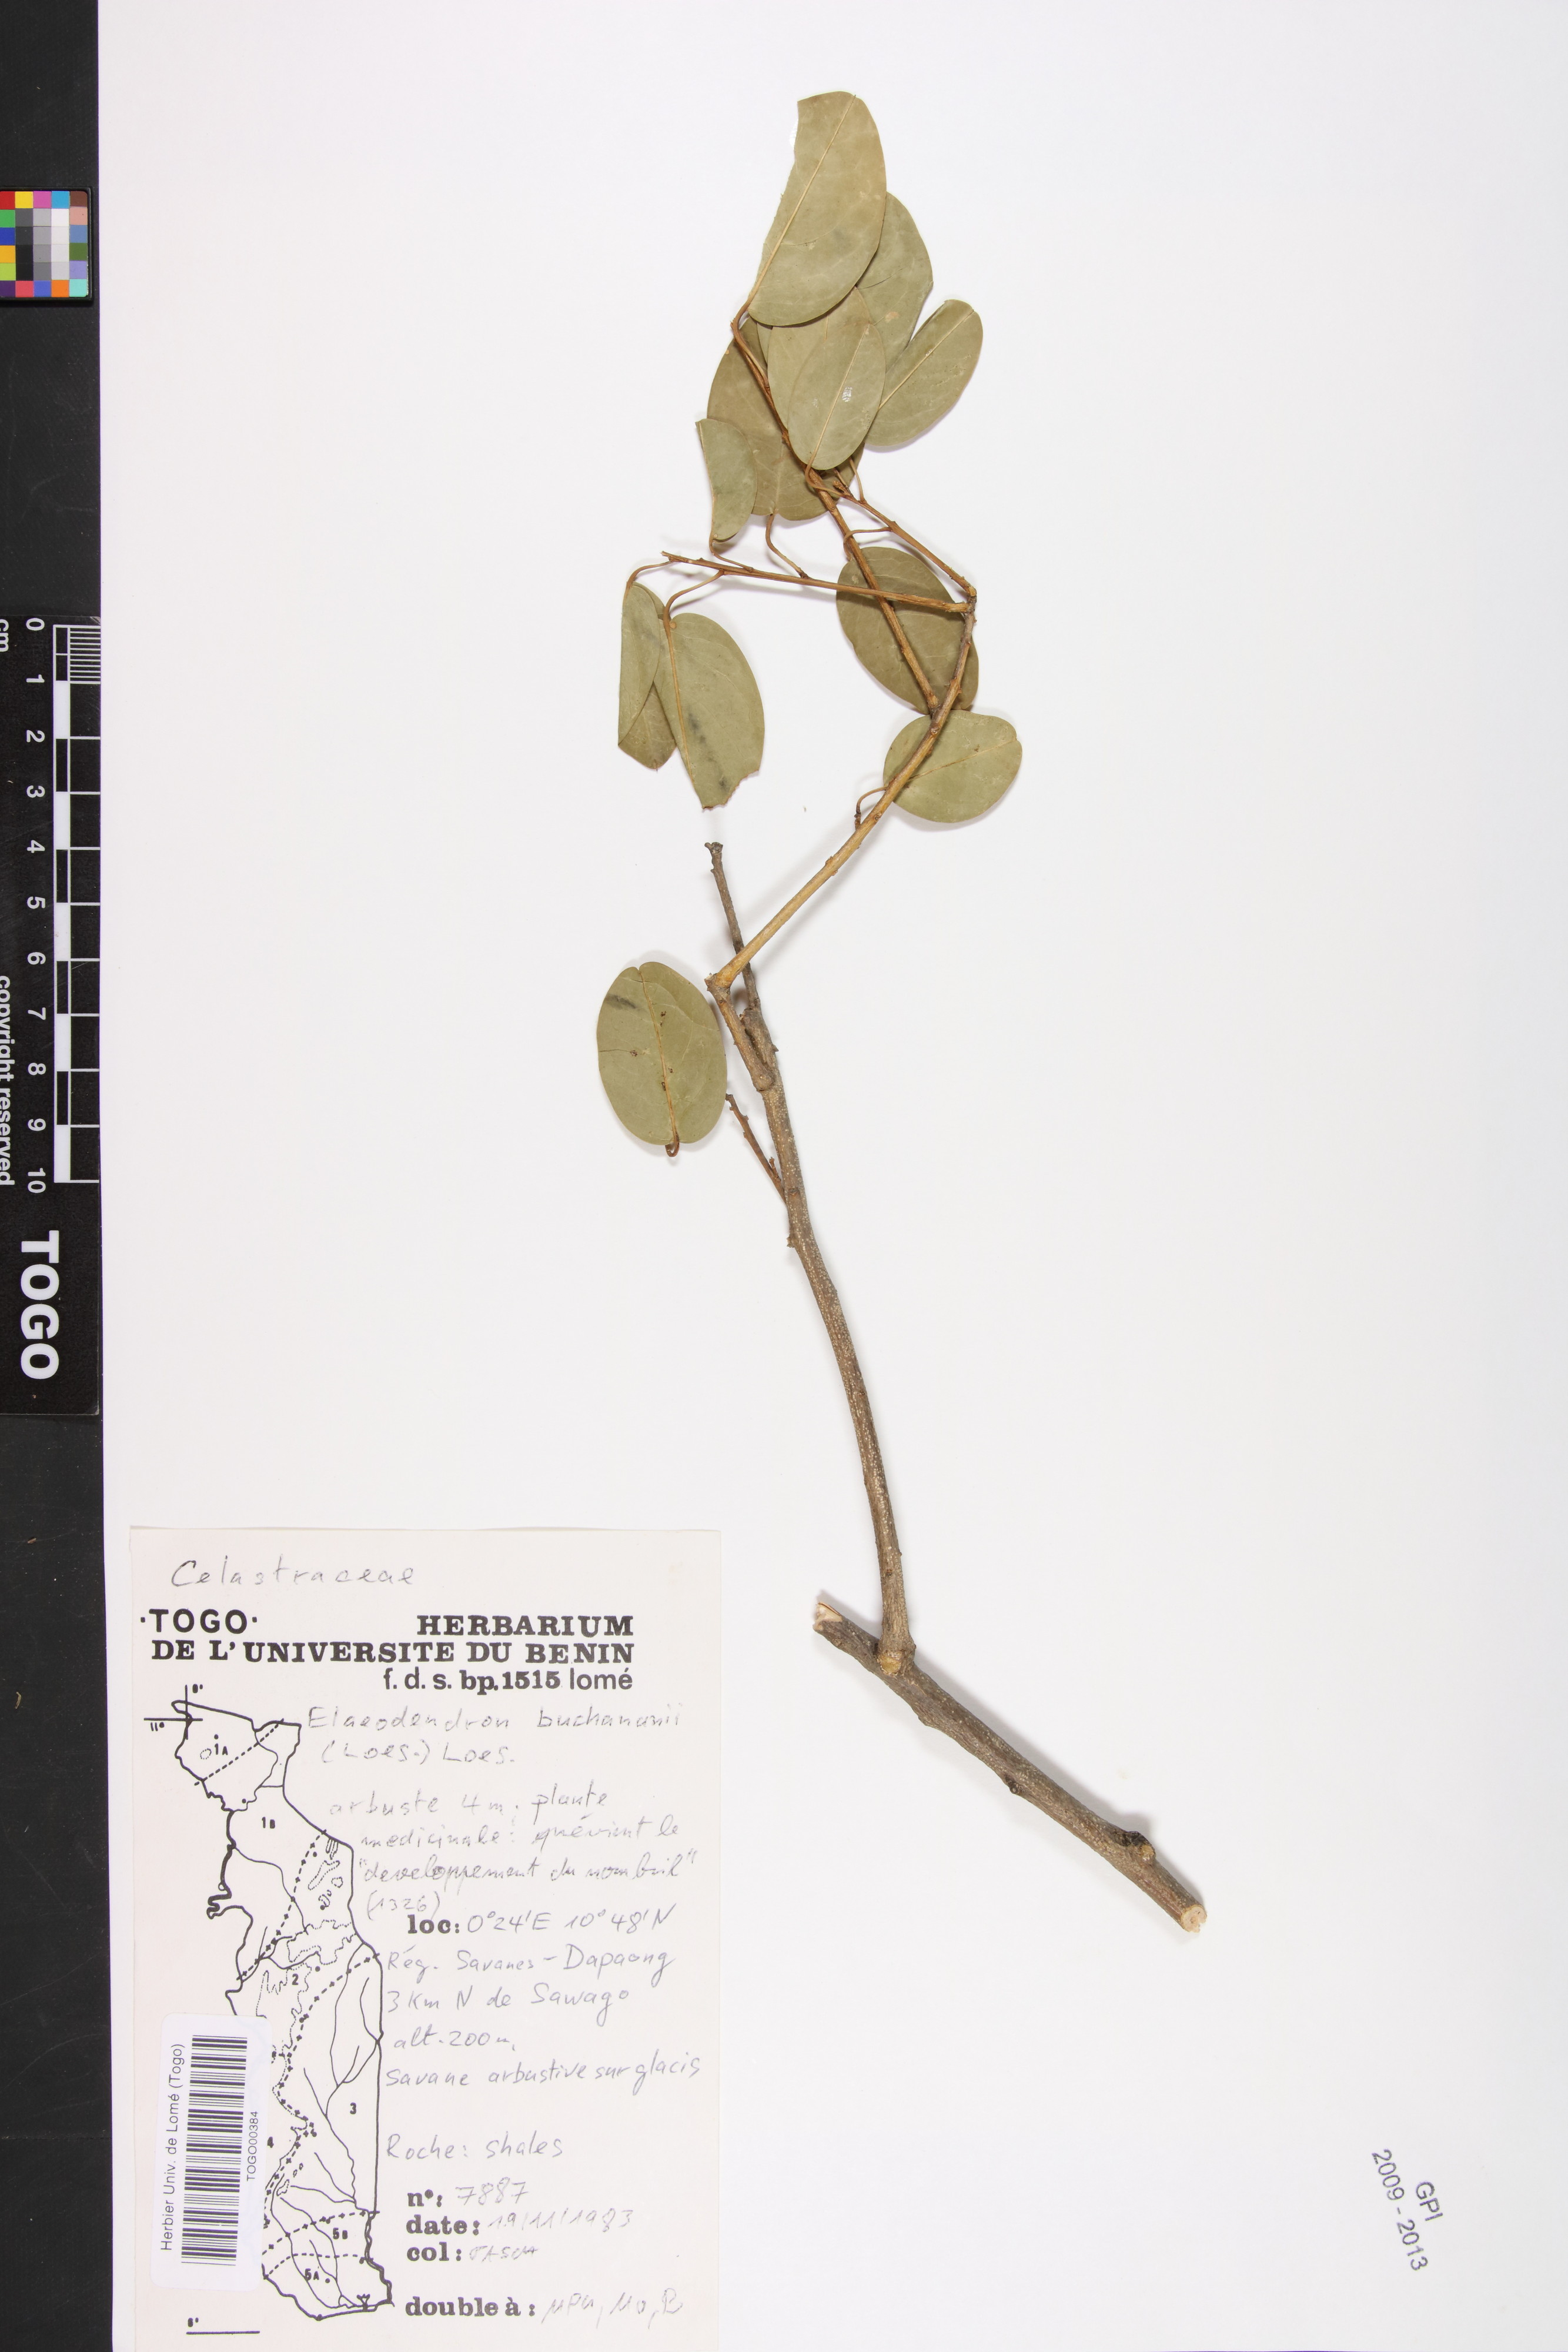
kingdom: Plantae
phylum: Tracheophyta
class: Magnoliopsida
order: Celastrales
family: Celastraceae
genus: Elaeodendron
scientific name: Elaeodendron buchananii
